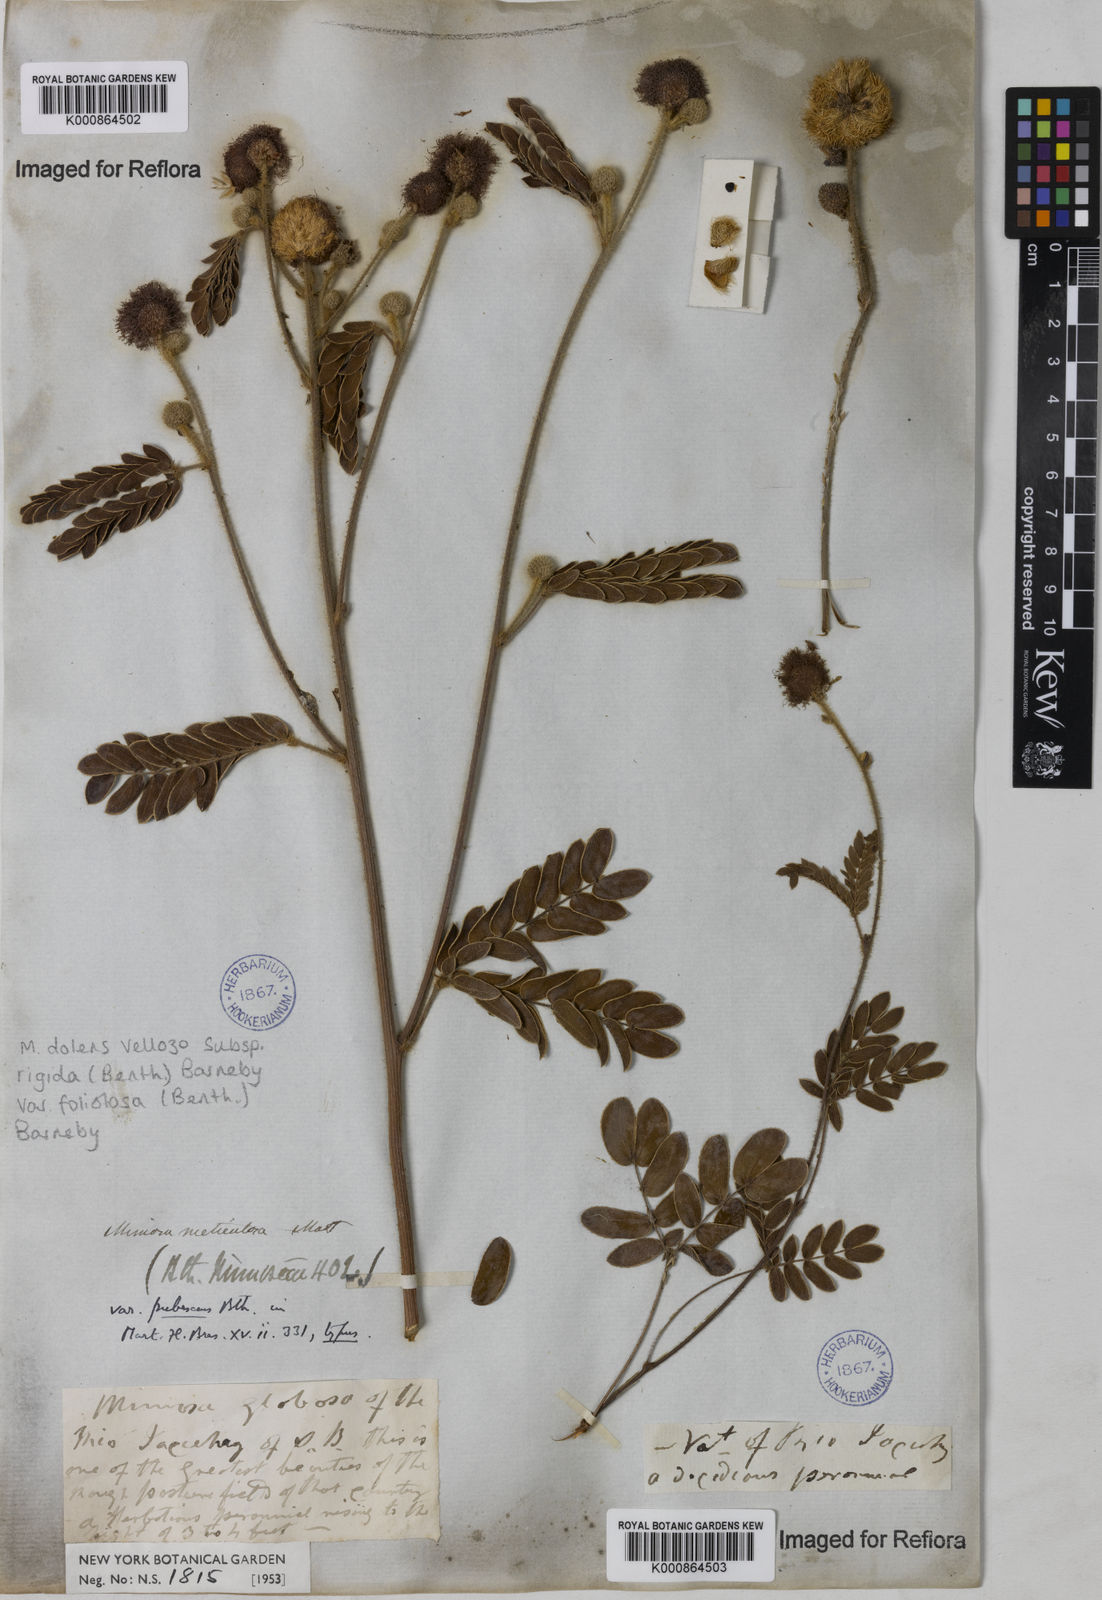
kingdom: Plantae
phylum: Tracheophyta
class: Magnoliopsida
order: Fabales
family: Fabaceae
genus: Mimosa
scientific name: Mimosa dolens
